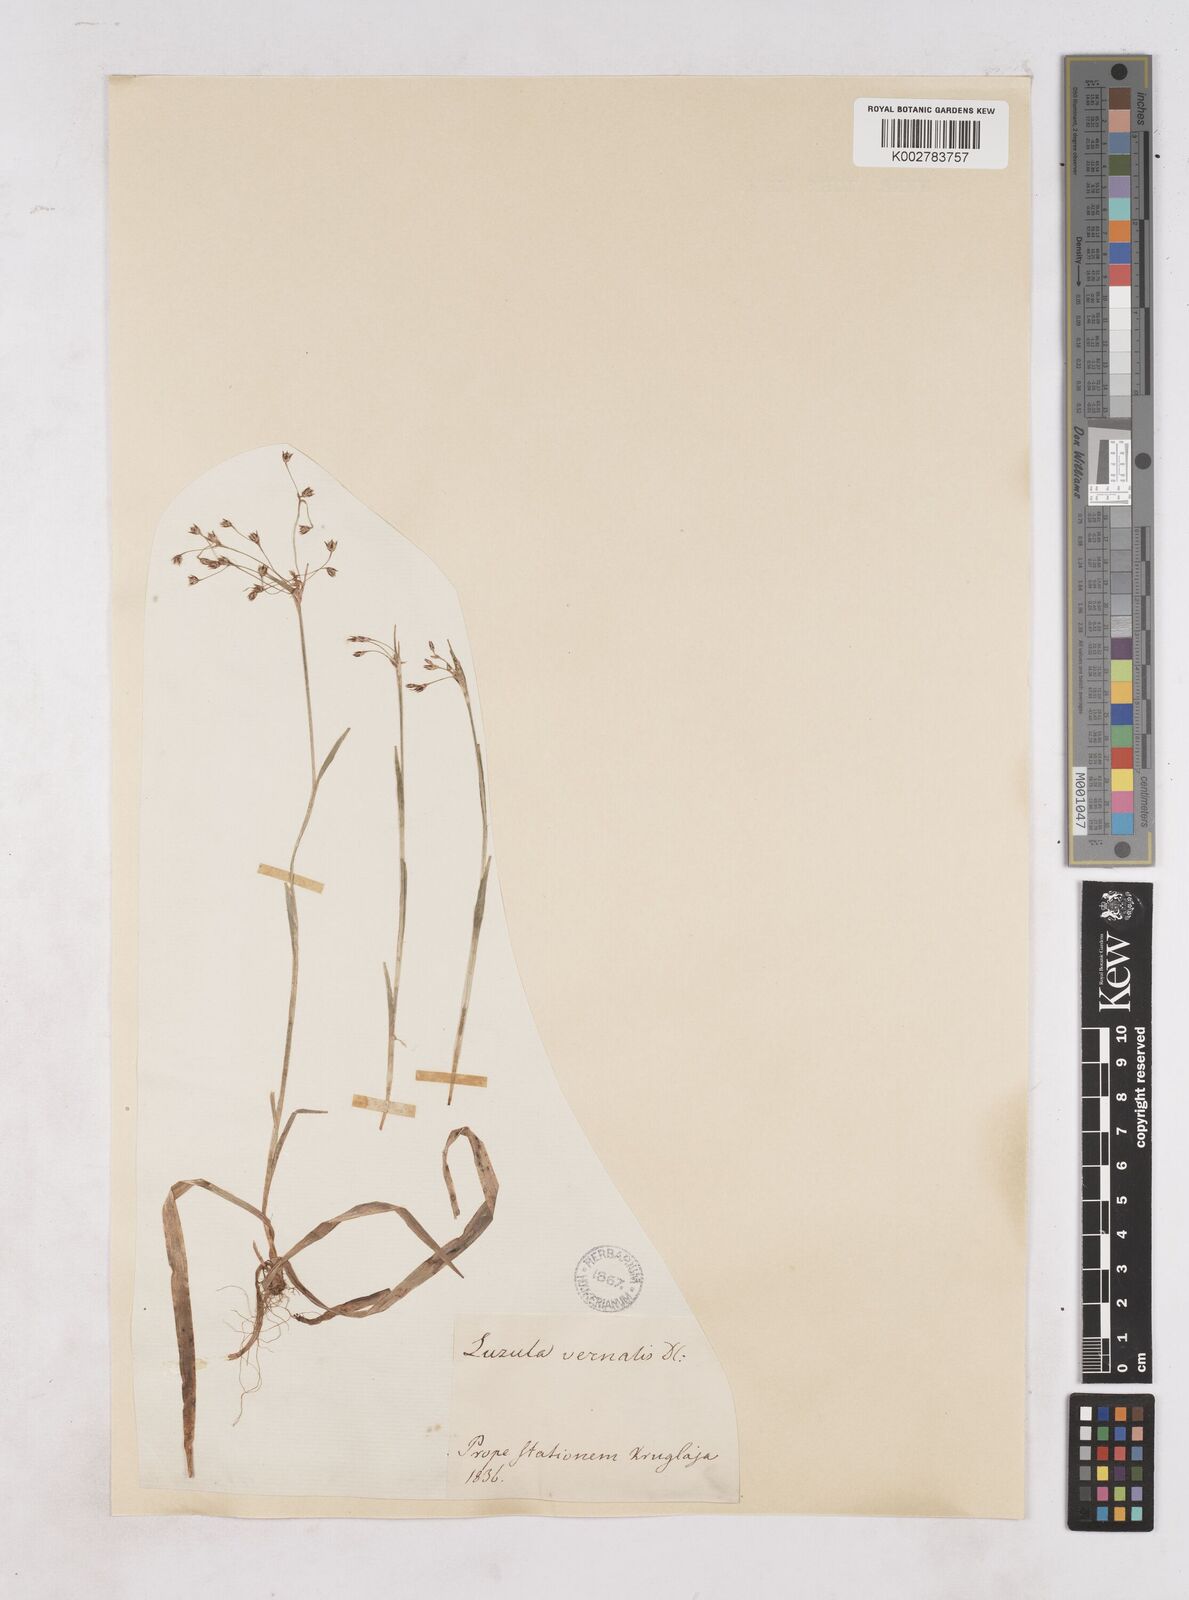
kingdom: Plantae
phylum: Tracheophyta
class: Liliopsida
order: Poales
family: Juncaceae
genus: Luzula
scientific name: Luzula pilosa
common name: Hairy wood-rush
